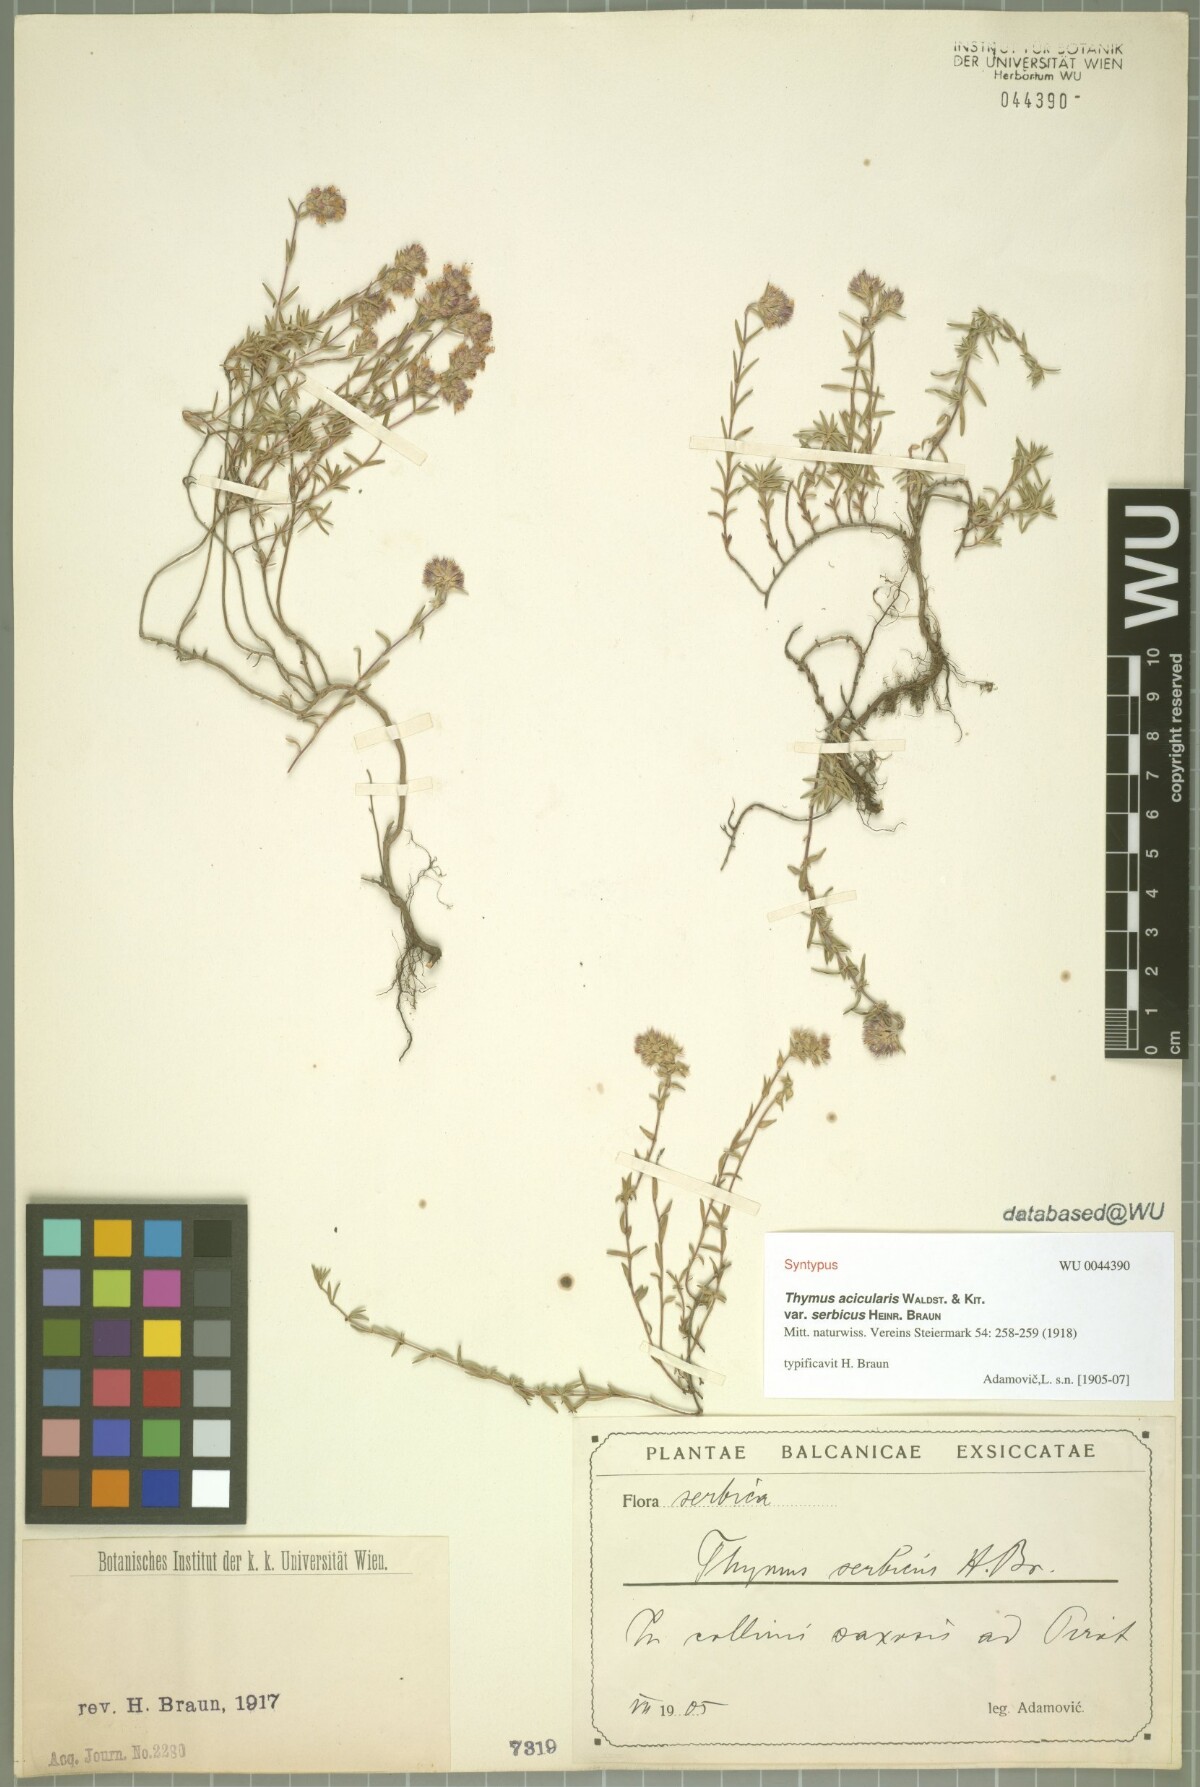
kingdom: Plantae
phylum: Tracheophyta
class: Magnoliopsida
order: Lamiales
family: Lamiaceae
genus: Thymus
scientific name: Thymus
